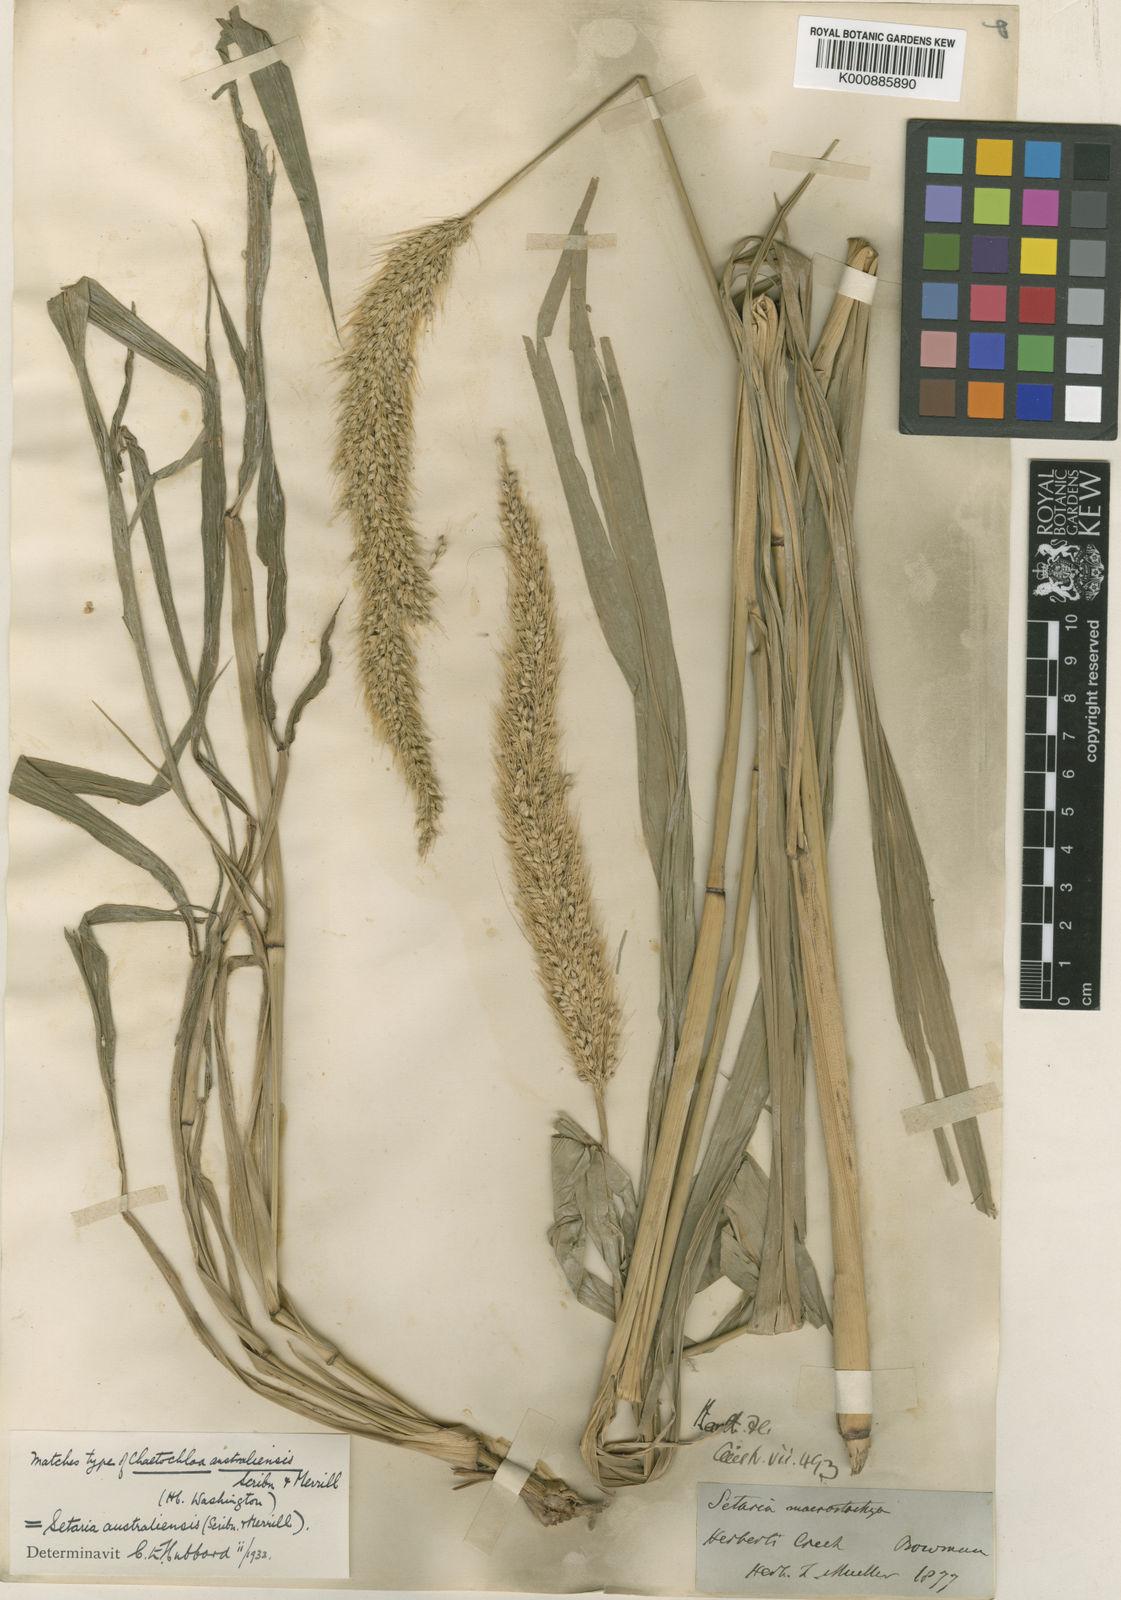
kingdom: Plantae
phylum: Tracheophyta
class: Liliopsida
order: Poales
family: Poaceae
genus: Setaria
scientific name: Setaria australiensis
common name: Scrub pigeon grass
